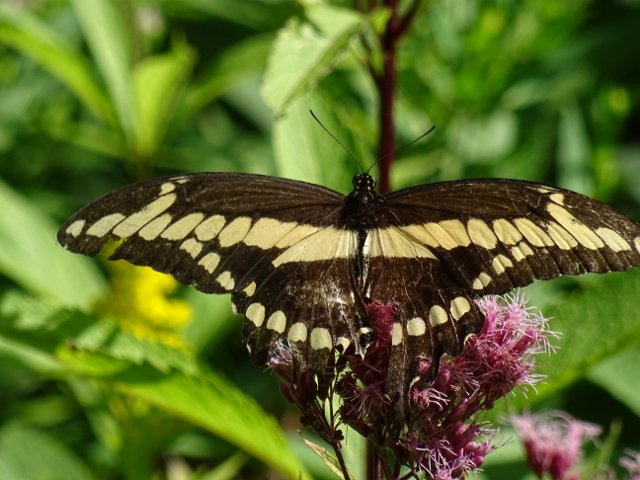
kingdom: Animalia
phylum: Arthropoda
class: Insecta
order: Lepidoptera
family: Papilionidae
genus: Papilio
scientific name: Papilio cresphontes
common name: Eastern Giant Swallowtail
